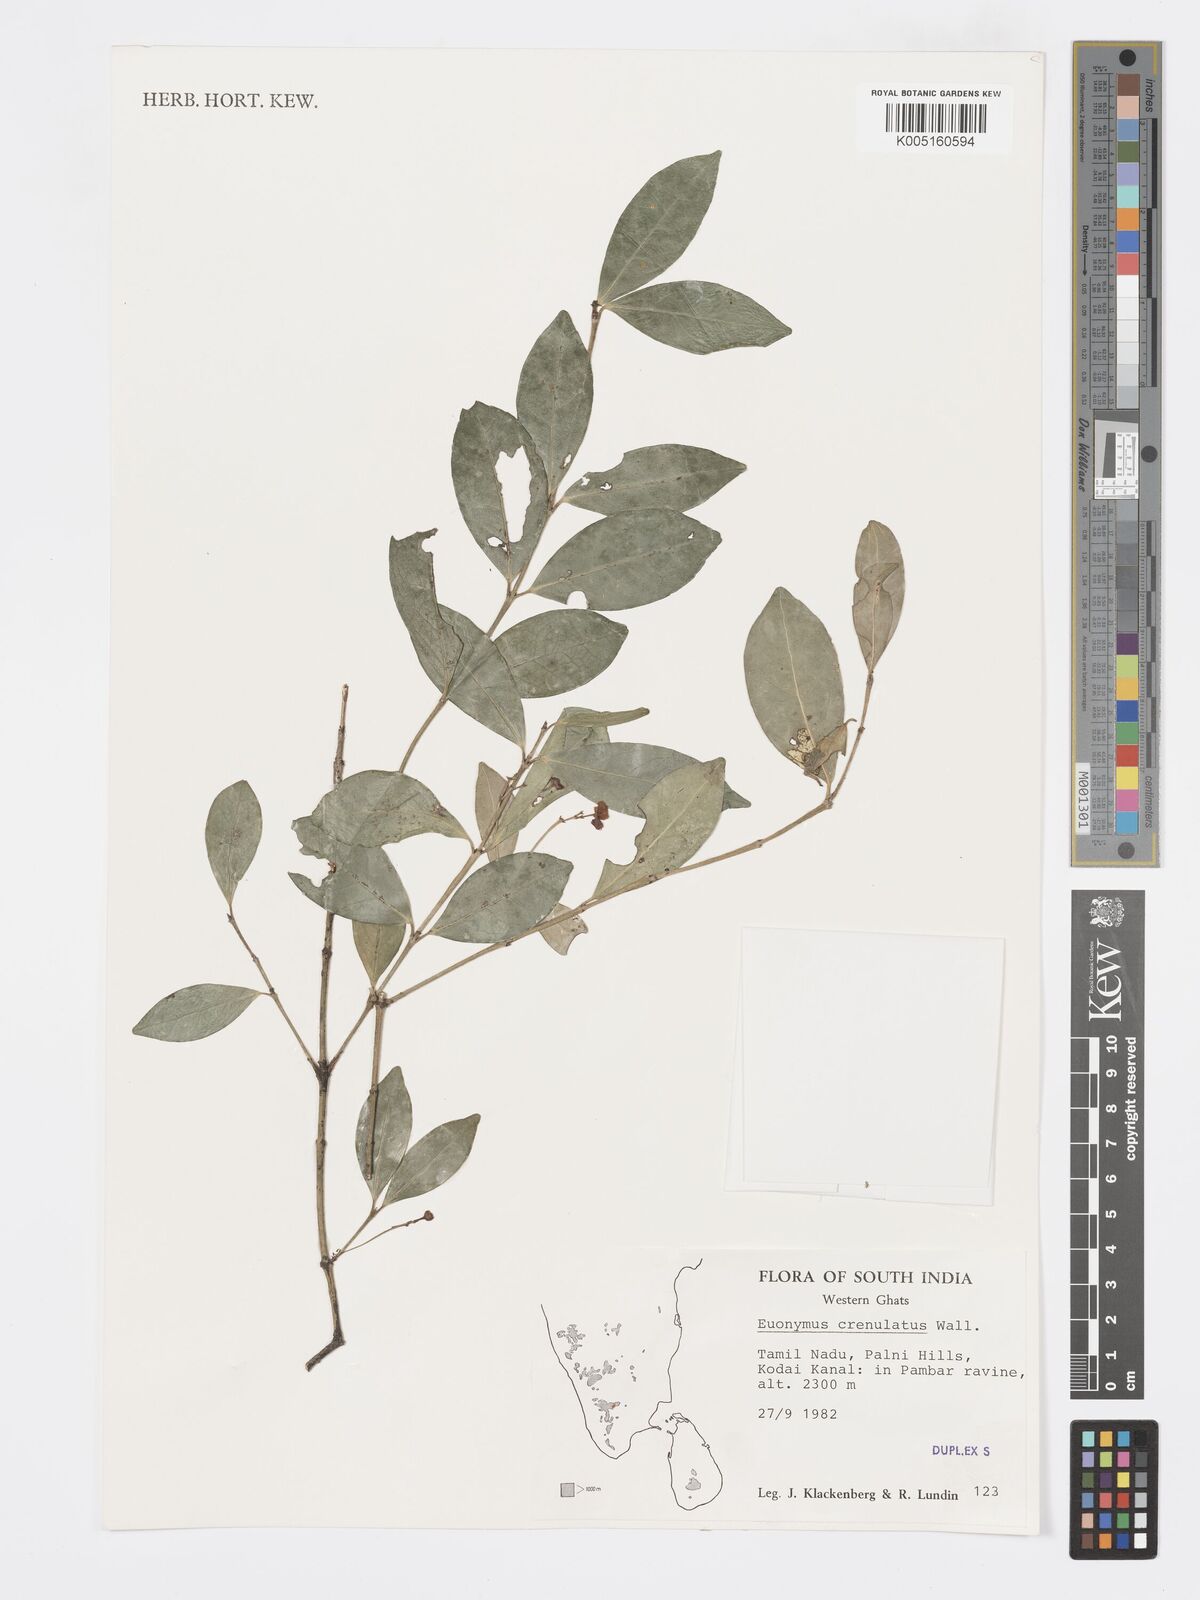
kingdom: Plantae
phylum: Tracheophyta
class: Magnoliopsida
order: Celastrales
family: Celastraceae
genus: Euonymus
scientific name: Euonymus crenulatus
